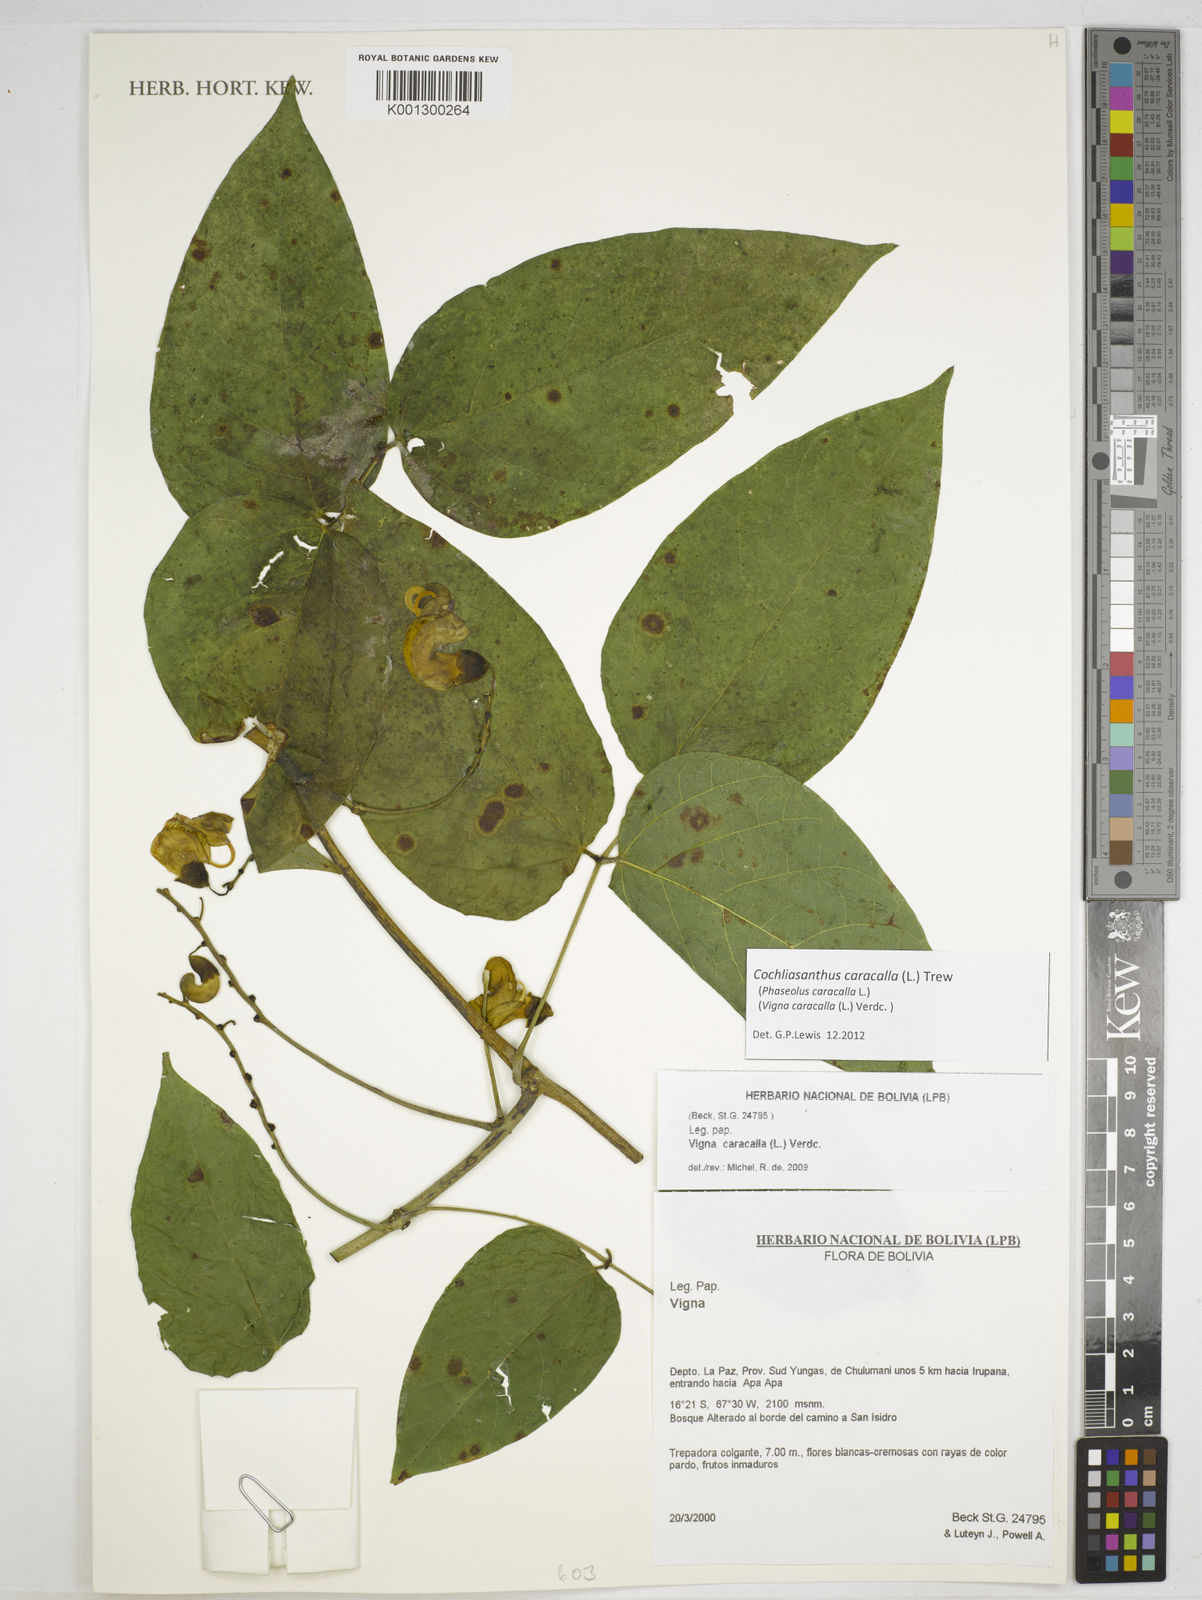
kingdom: Plantae
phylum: Tracheophyta
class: Magnoliopsida
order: Fabales
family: Fabaceae
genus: Cochliasanthus
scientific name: Cochliasanthus caracalla
